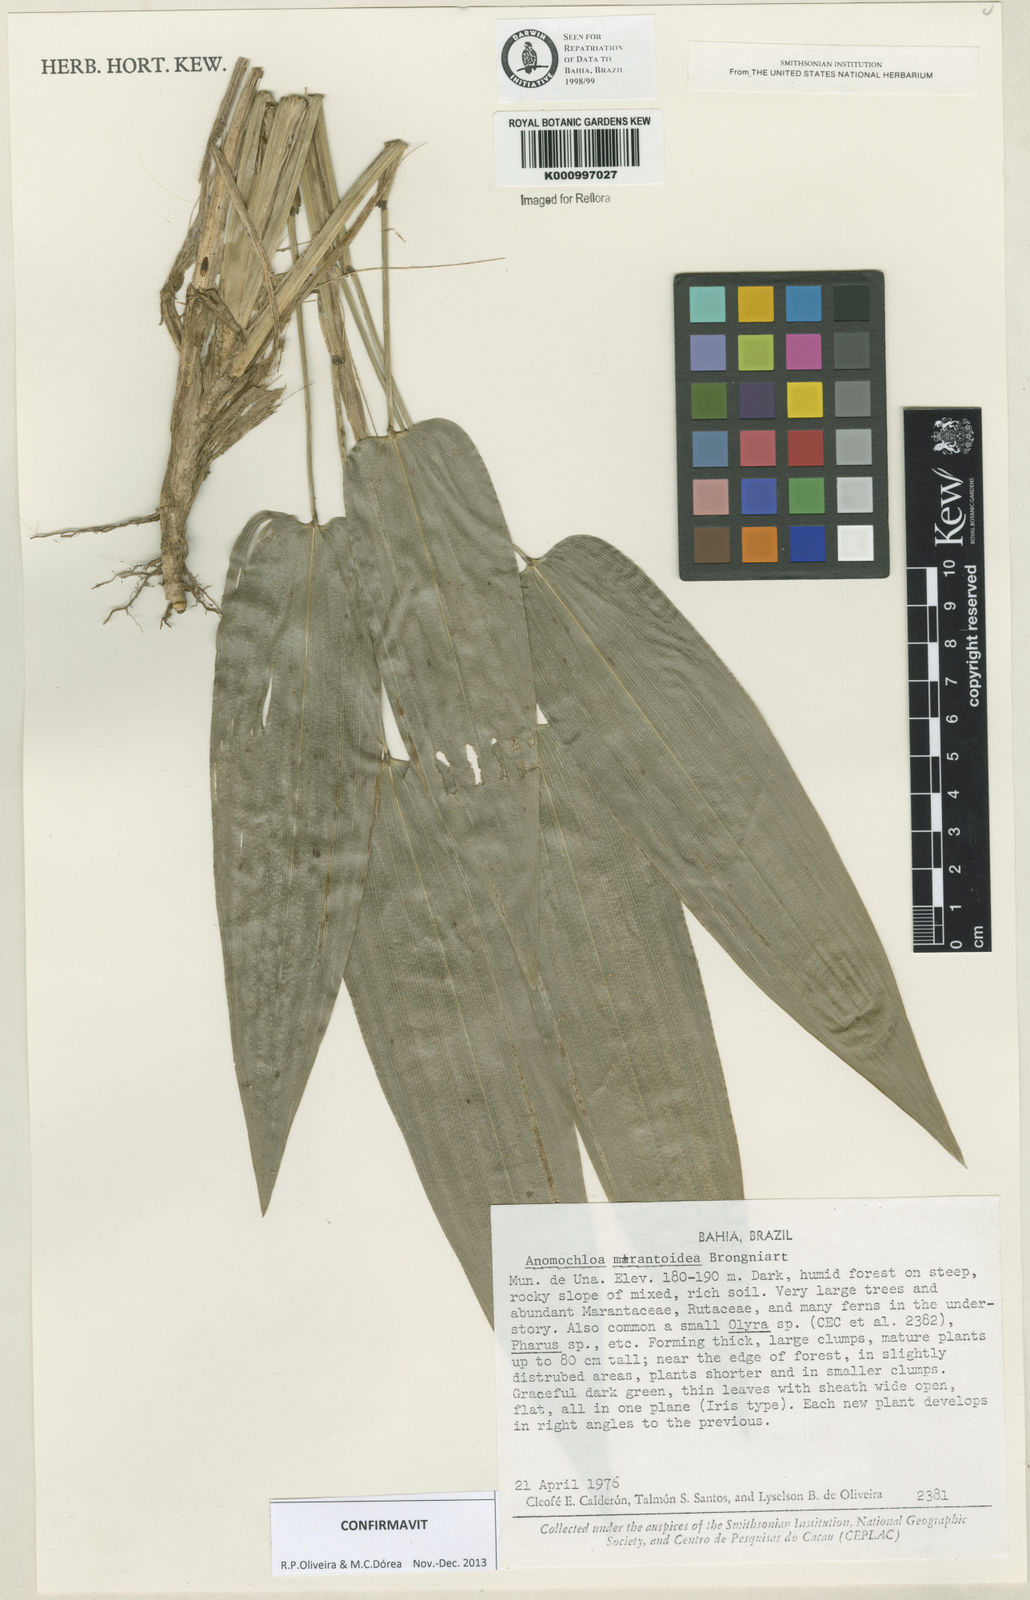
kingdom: Plantae
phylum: Tracheophyta
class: Liliopsida
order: Poales
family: Poaceae
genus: Anomochloa
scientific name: Anomochloa marantoidea
